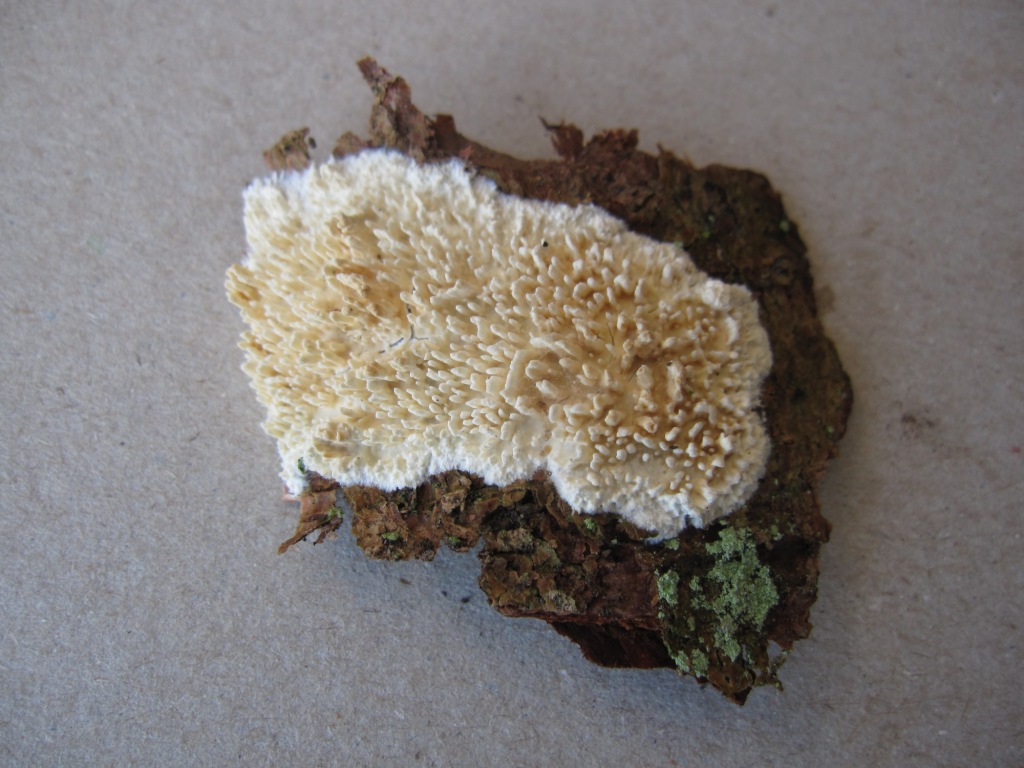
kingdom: Fungi
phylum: Basidiomycota
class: Agaricomycetes
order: Hymenochaetales
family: Schizoporaceae
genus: Xylodon
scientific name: Xylodon radula
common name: grovtandet kalkskind
